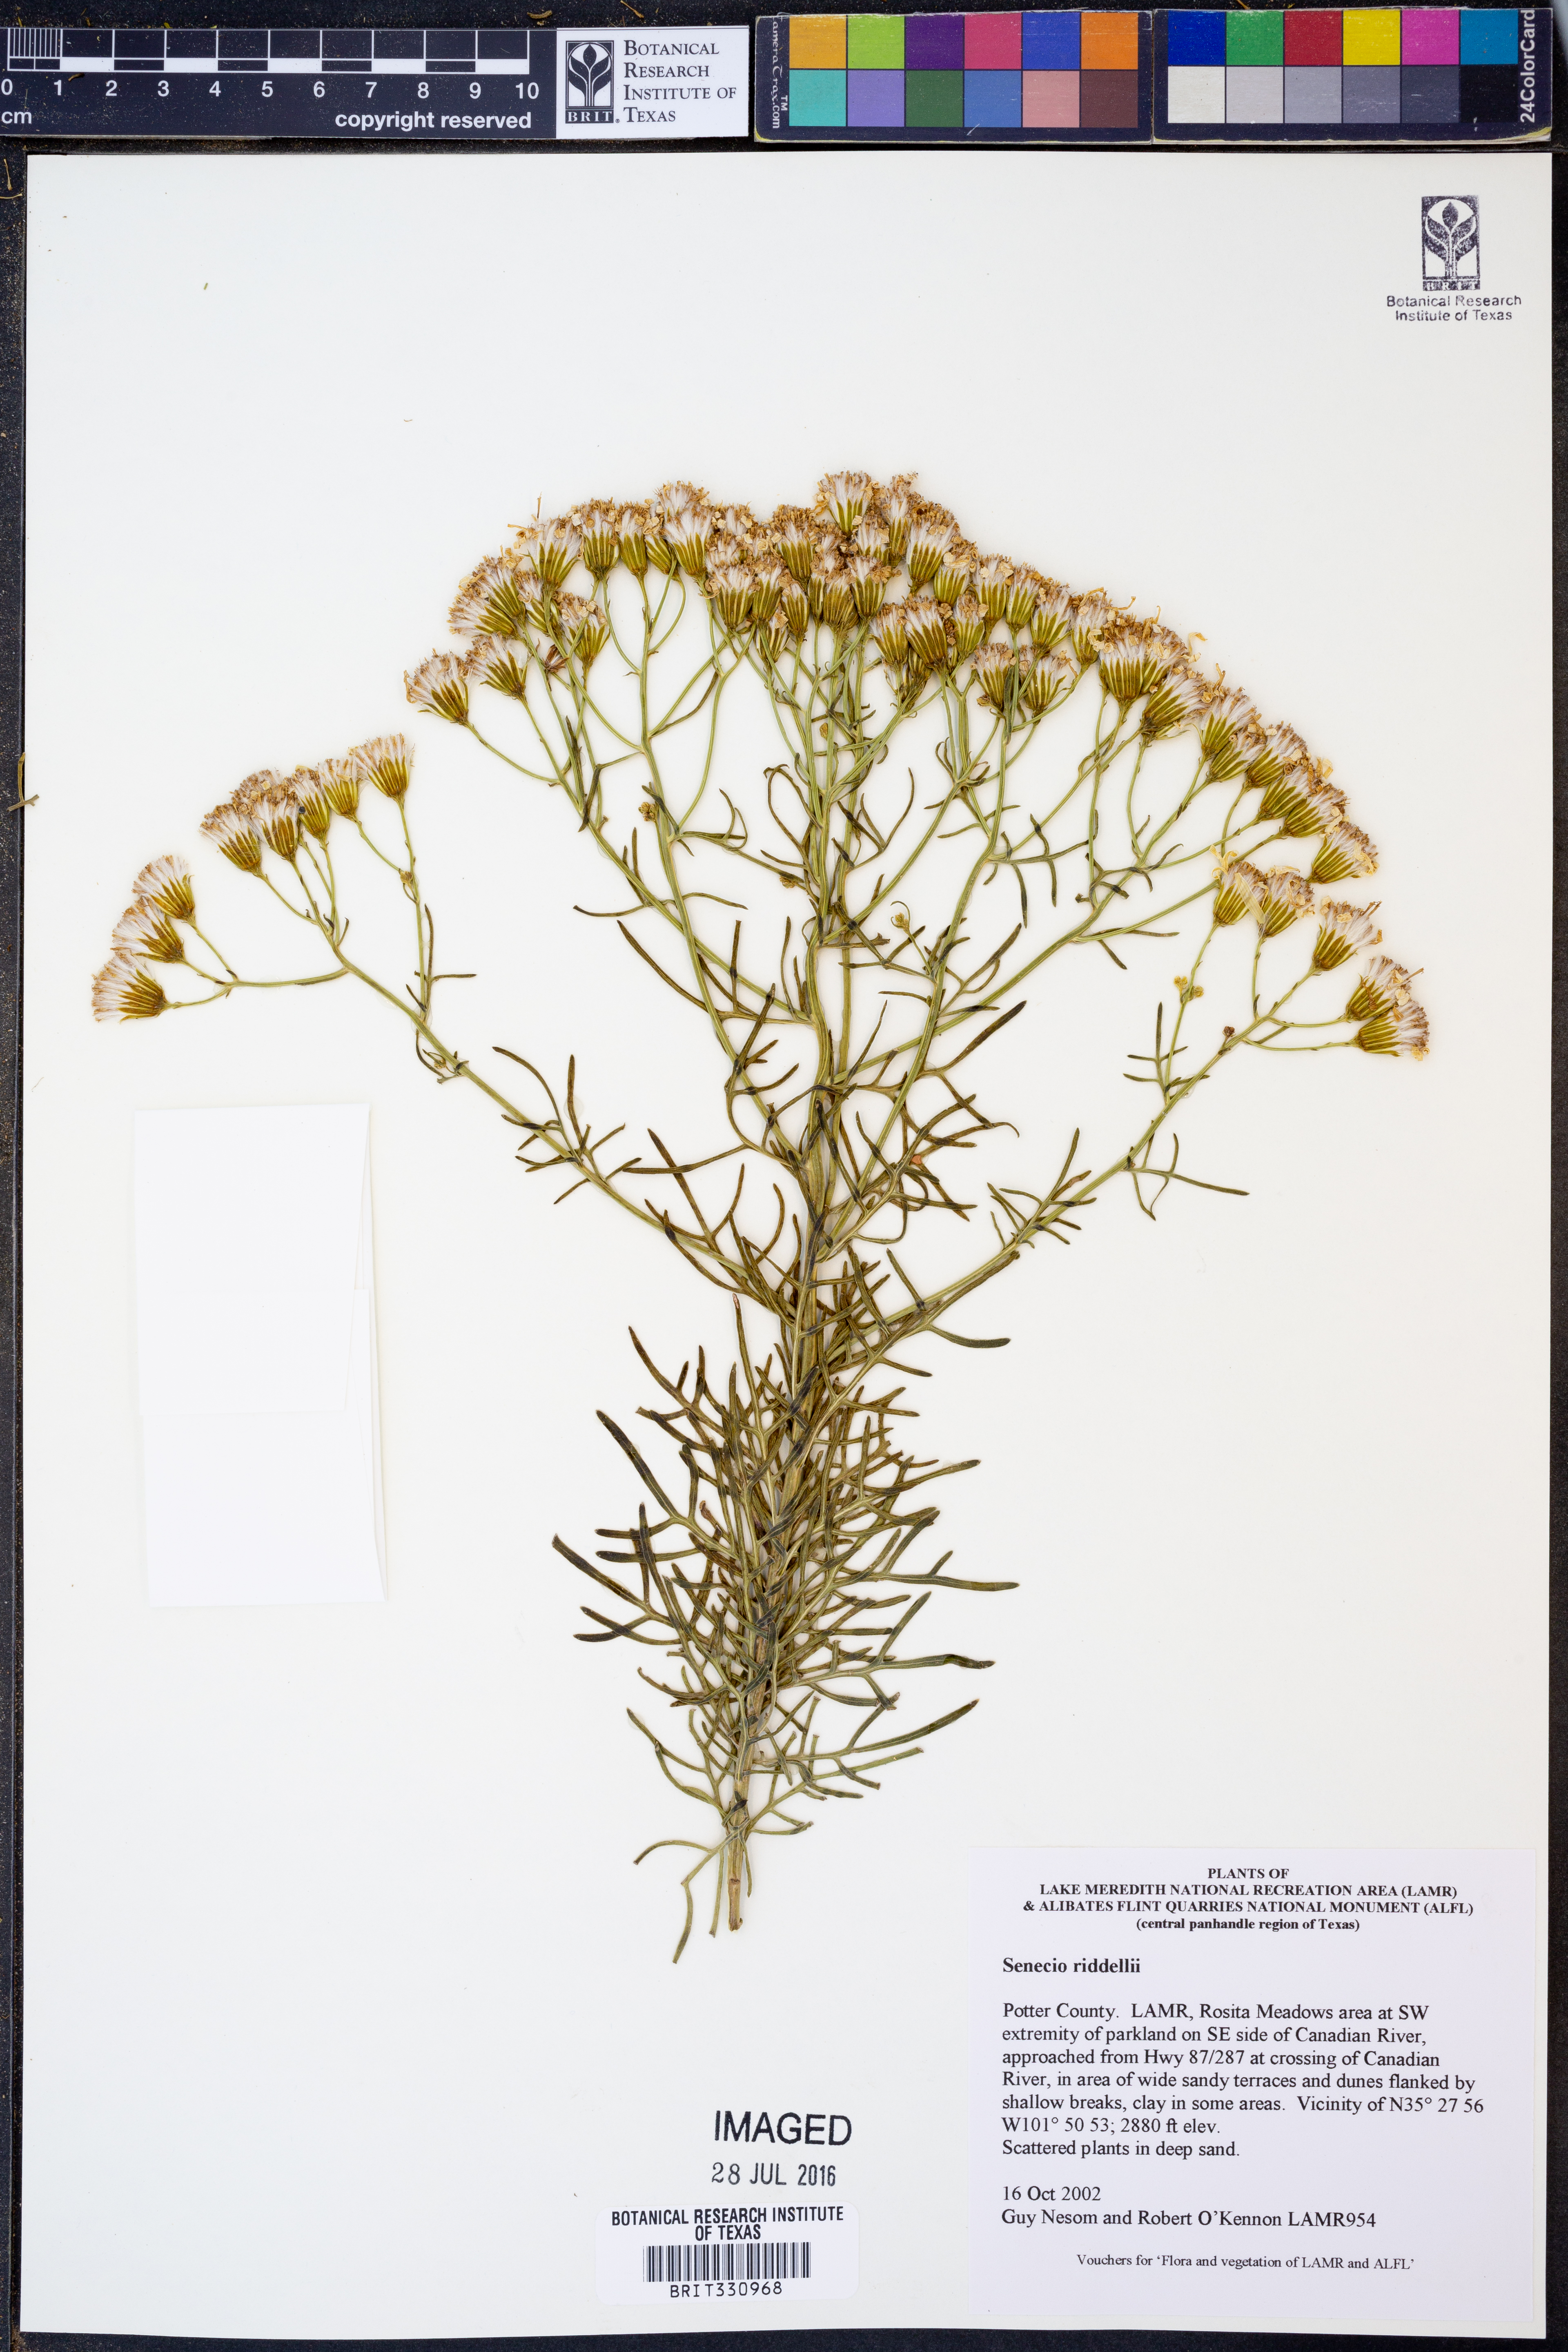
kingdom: Plantae
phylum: Tracheophyta
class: Magnoliopsida
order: Asterales
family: Asteraceae
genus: Senecio
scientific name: Senecio riddellii
